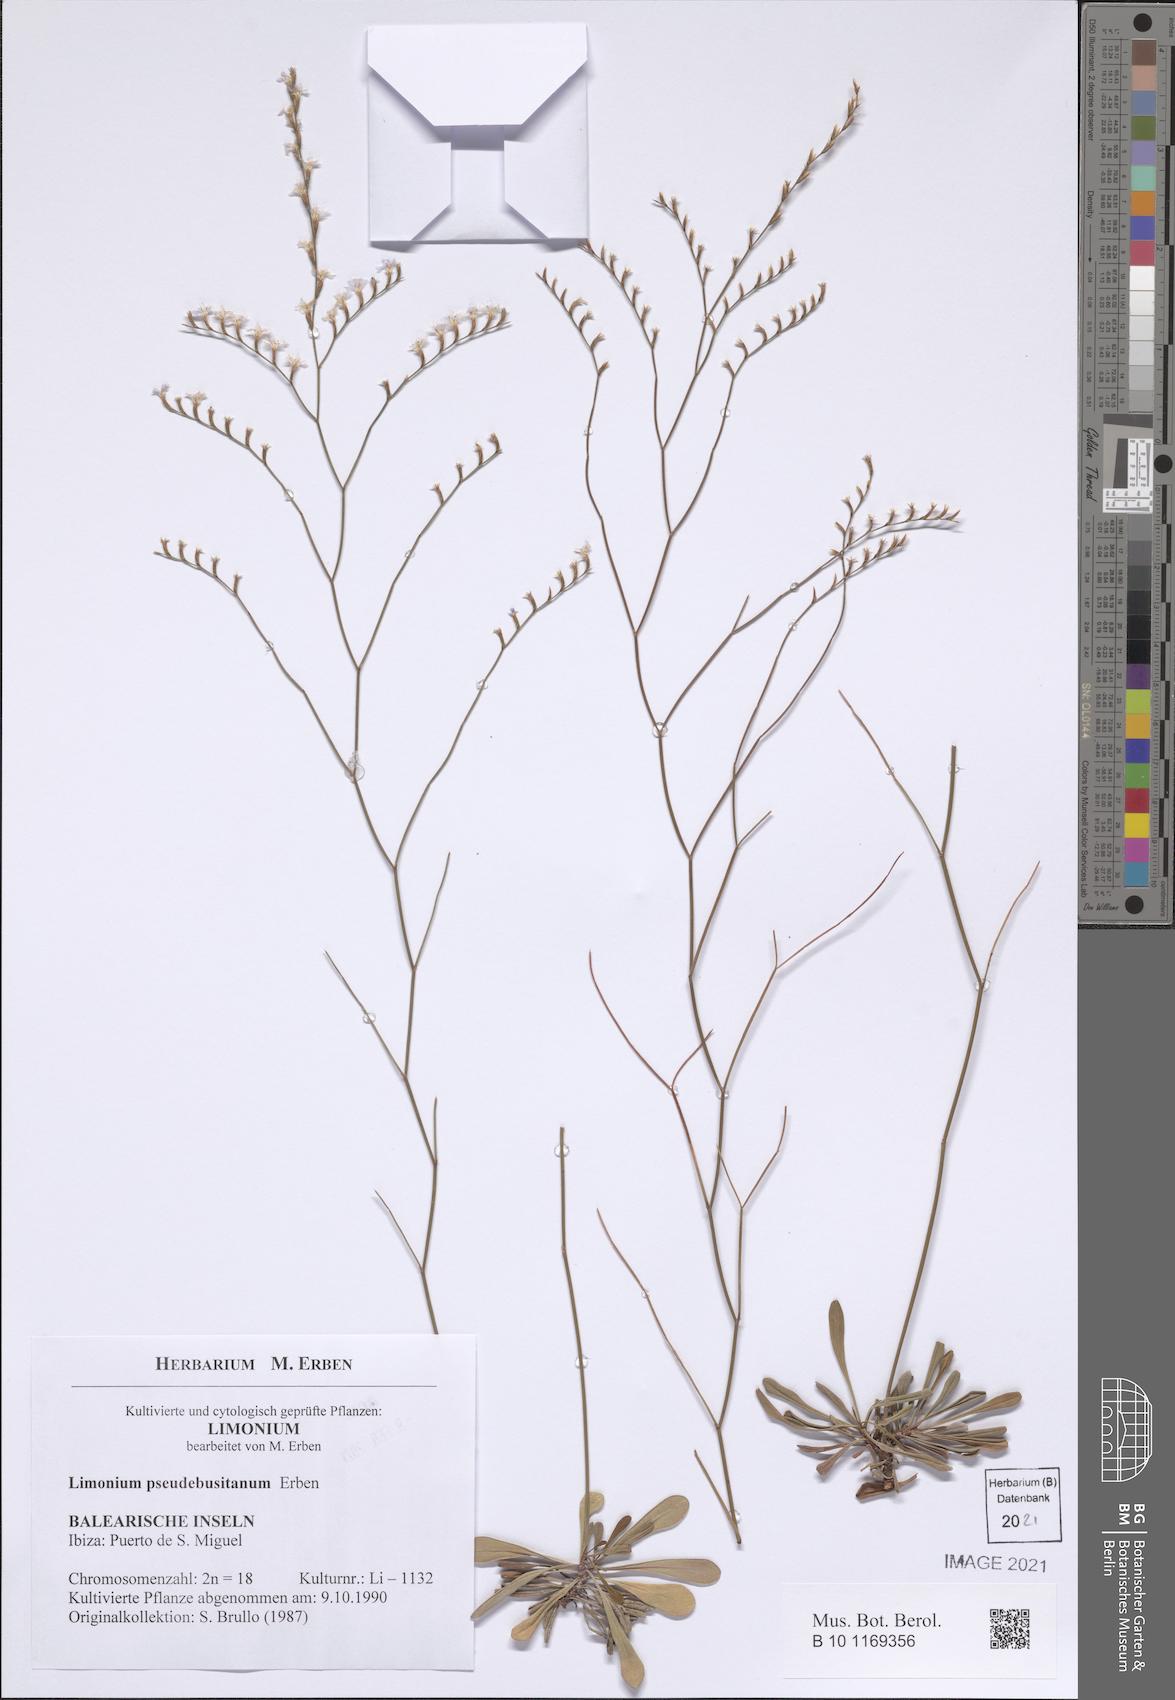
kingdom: Plantae
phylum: Tracheophyta
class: Magnoliopsida
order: Caryophyllales
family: Plumbaginaceae
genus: Limonium
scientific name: Limonium pseudebusitanum
